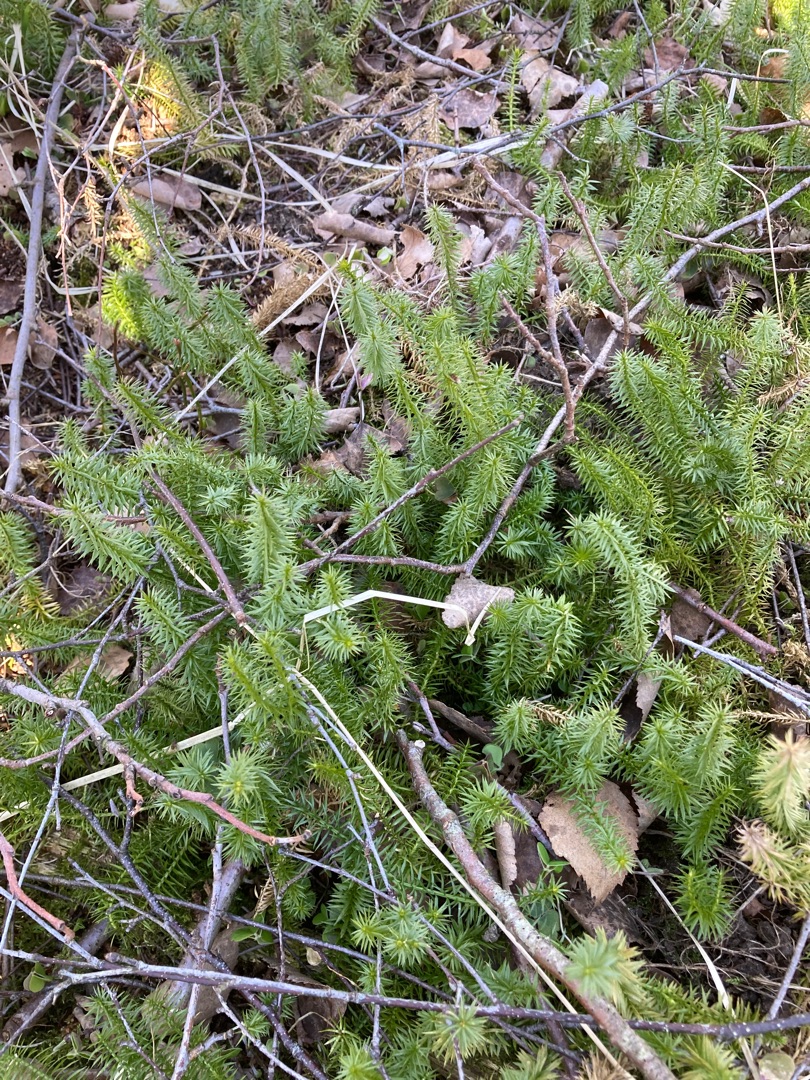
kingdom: Plantae
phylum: Tracheophyta
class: Lycopodiopsida
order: Lycopodiales
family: Lycopodiaceae
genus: Spinulum
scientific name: Spinulum annotinum
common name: Femradet ulvefod
